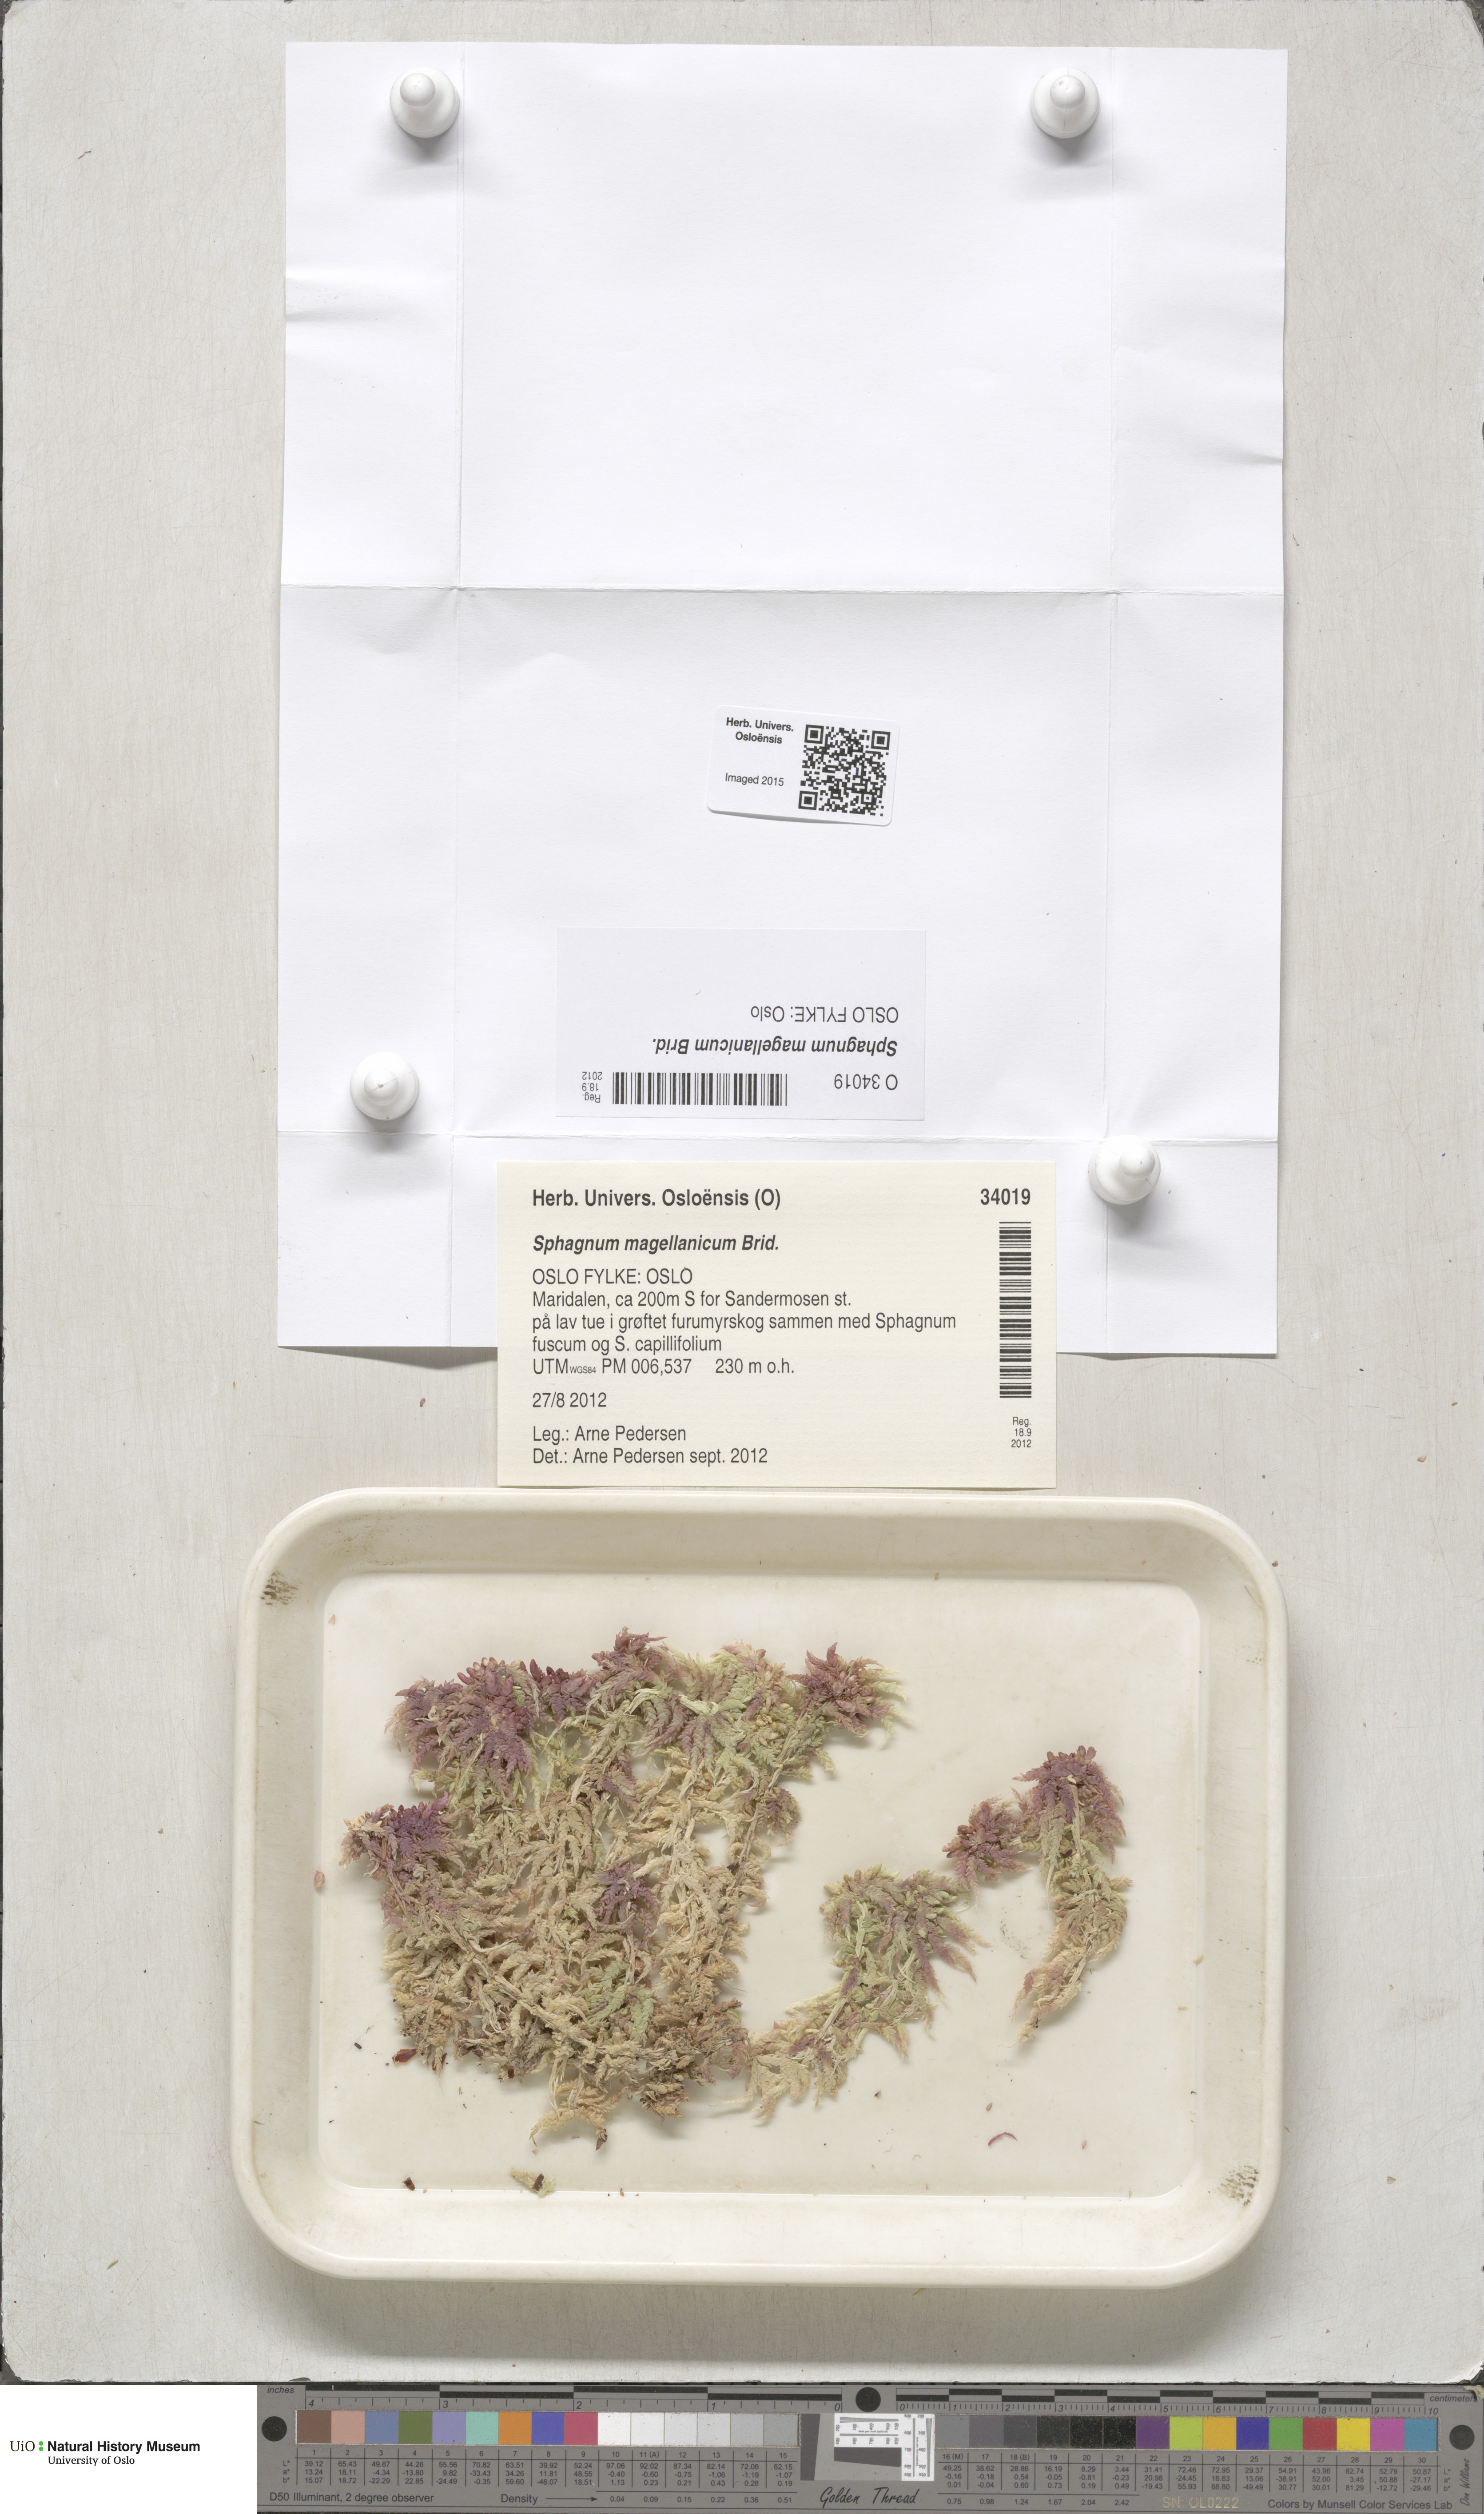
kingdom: Plantae
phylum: Bryophyta
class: Sphagnopsida
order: Sphagnales
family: Sphagnaceae
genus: Sphagnum
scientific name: Sphagnum magellanicum
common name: Magellan's peat moss
